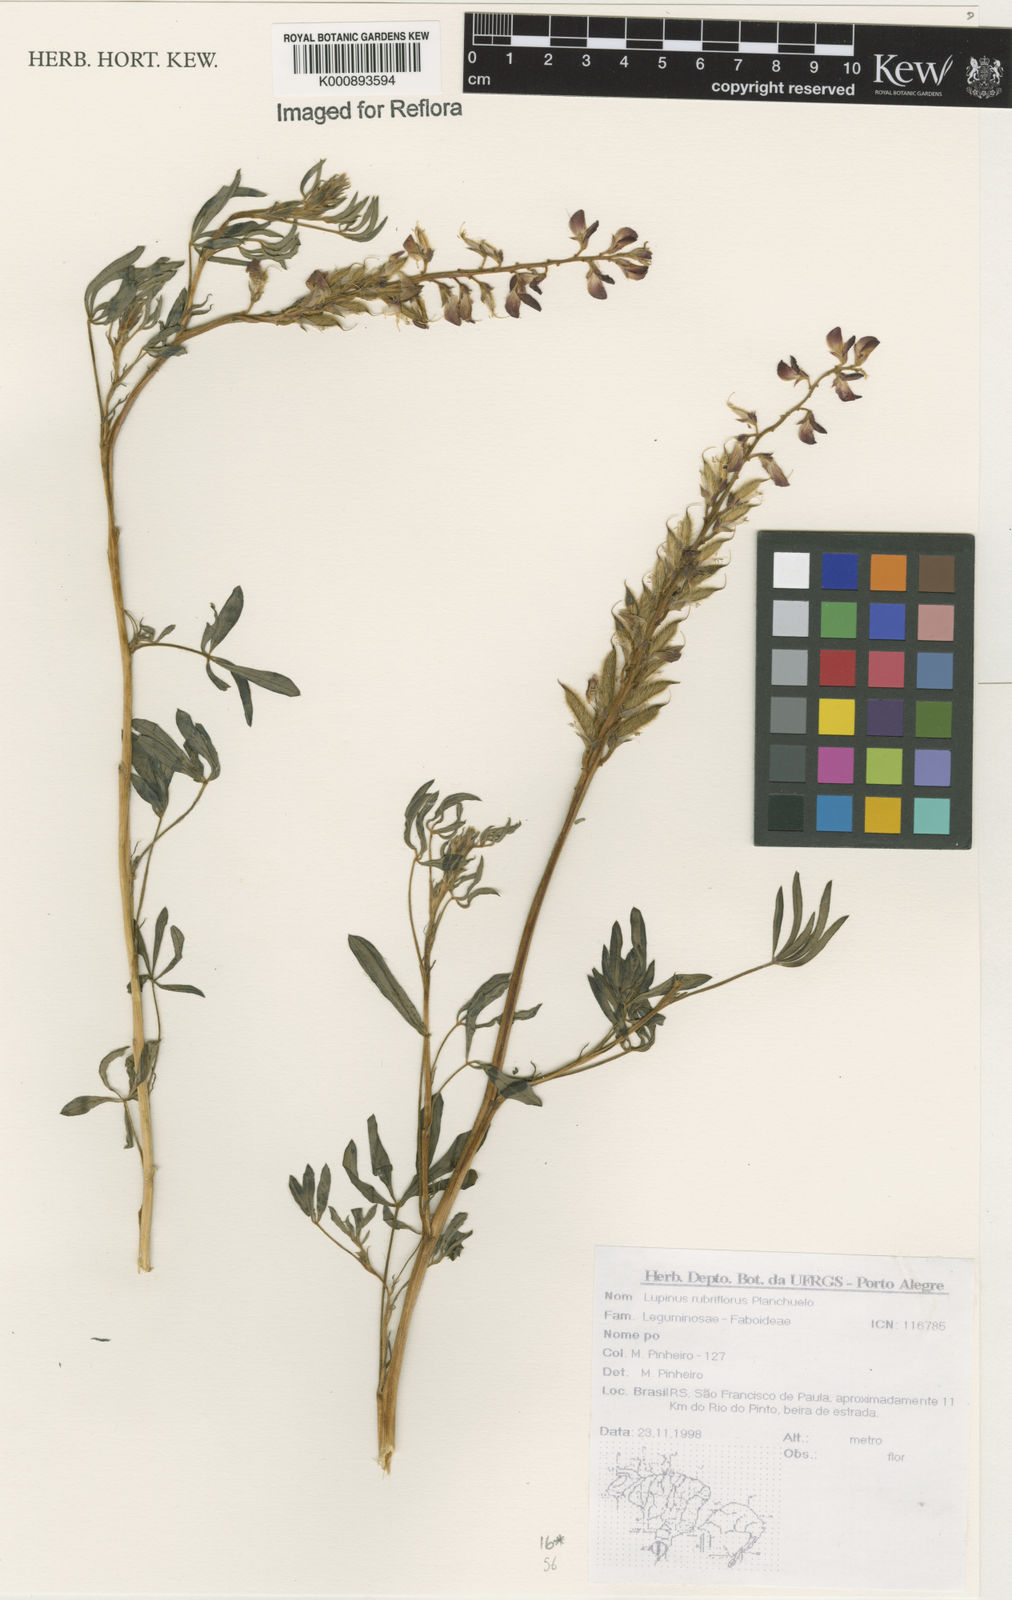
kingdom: Plantae
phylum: Tracheophyta
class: Magnoliopsida
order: Fabales
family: Fabaceae
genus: Lupinus
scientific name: Lupinus rubriflorus
